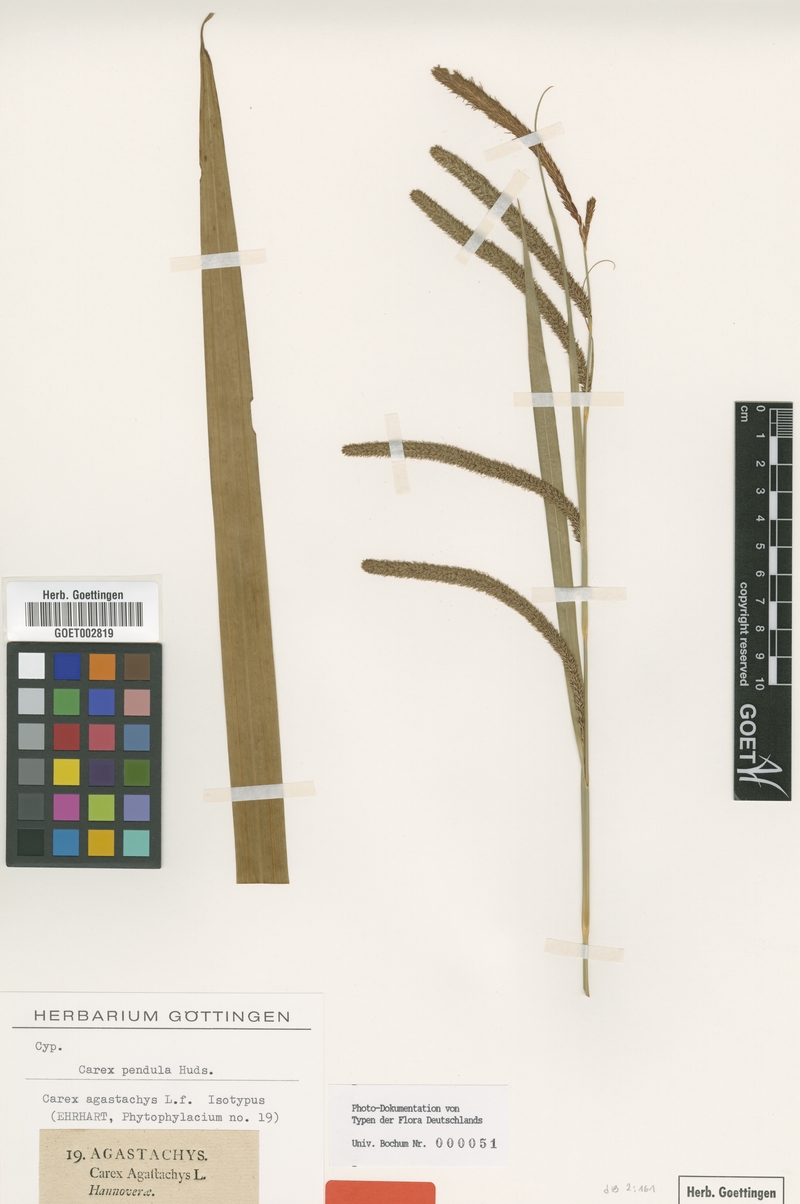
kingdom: Plantae
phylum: Tracheophyta
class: Liliopsida
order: Poales
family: Cyperaceae
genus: Carex
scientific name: Carex agastachys
